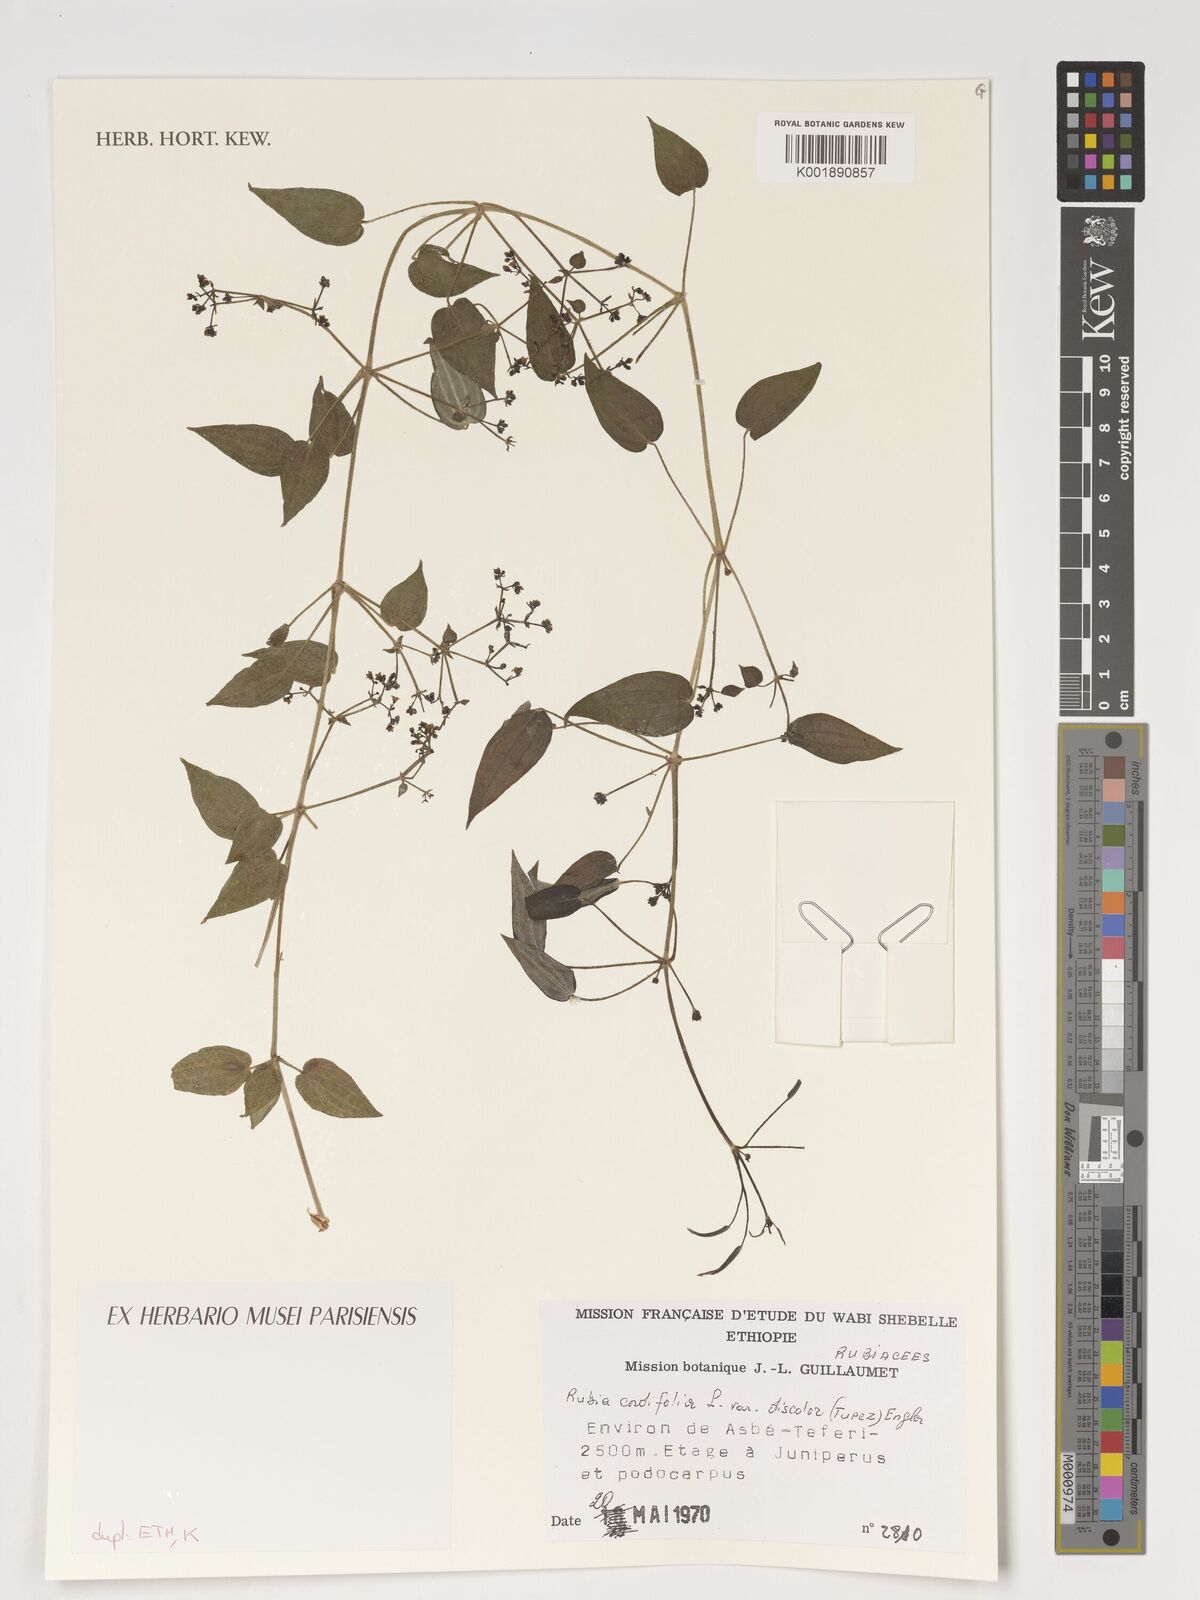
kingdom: Plantae
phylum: Tracheophyta
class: Magnoliopsida
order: Gentianales
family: Rubiaceae
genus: Rubia
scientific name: Rubia
